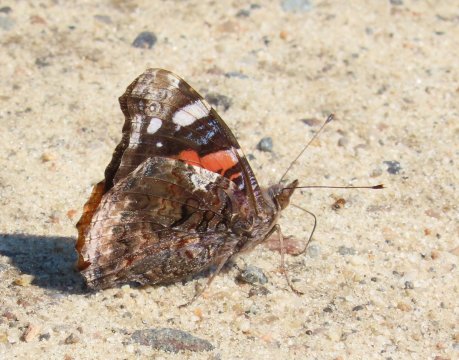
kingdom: Animalia
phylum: Arthropoda
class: Insecta
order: Lepidoptera
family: Nymphalidae
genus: Vanessa
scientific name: Vanessa atalanta
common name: Red Admiral
